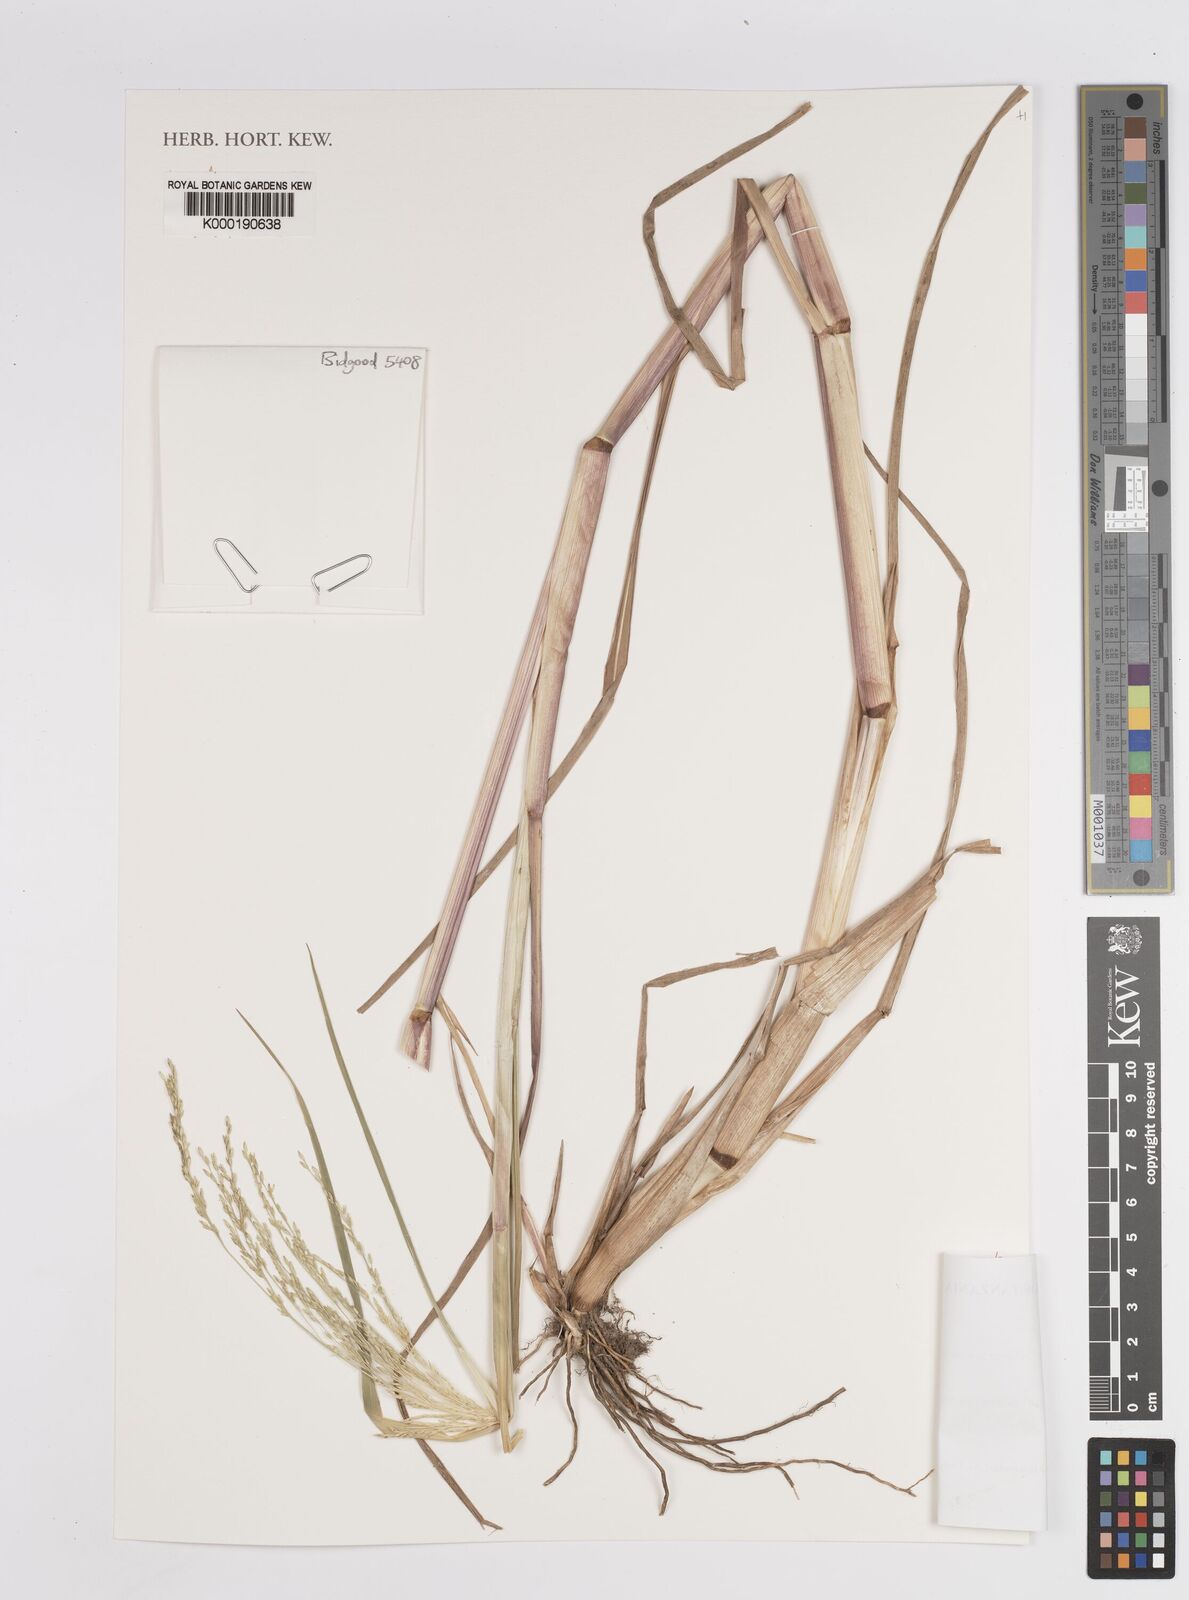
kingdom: Plantae
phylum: Tracheophyta
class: Liliopsida
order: Poales
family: Poaceae
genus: Panicum
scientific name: Panicum subalbidum
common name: Elbow buffalo grass
